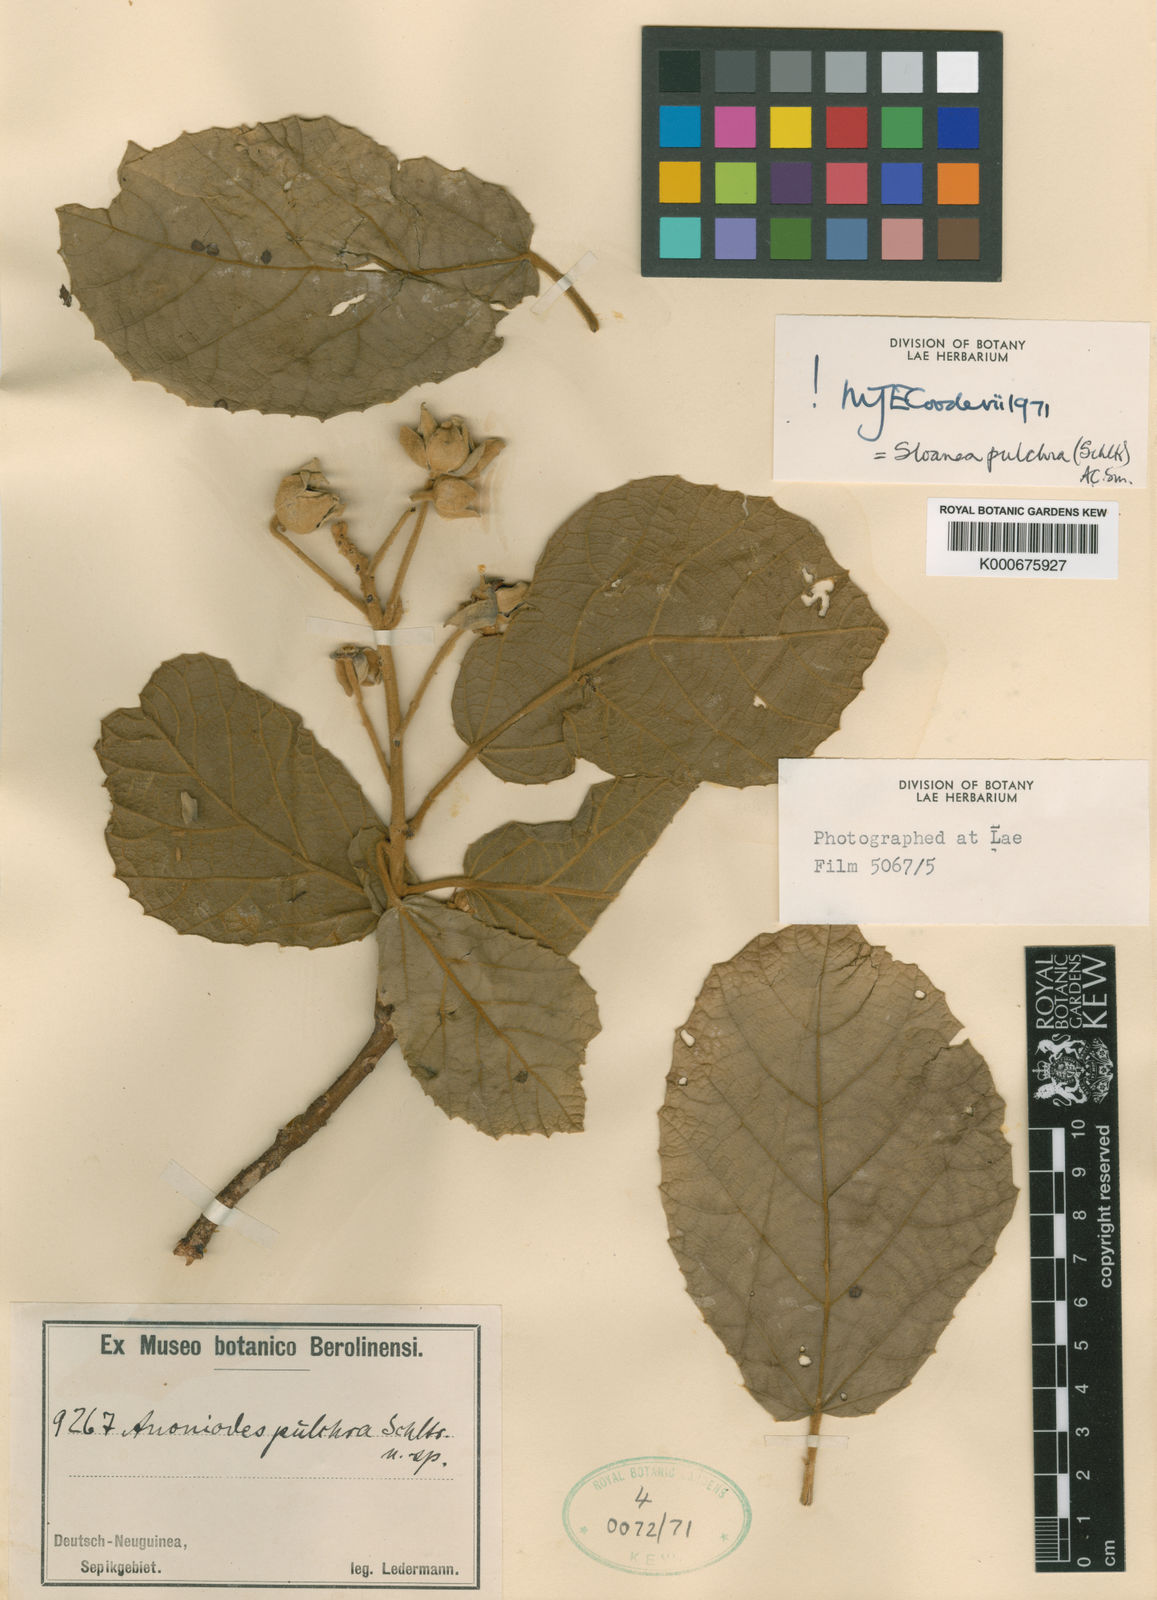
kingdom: Plantae
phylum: Tracheophyta
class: Magnoliopsida
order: Oxalidales
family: Elaeocarpaceae
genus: Sloanea
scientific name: Sloanea pulchra
